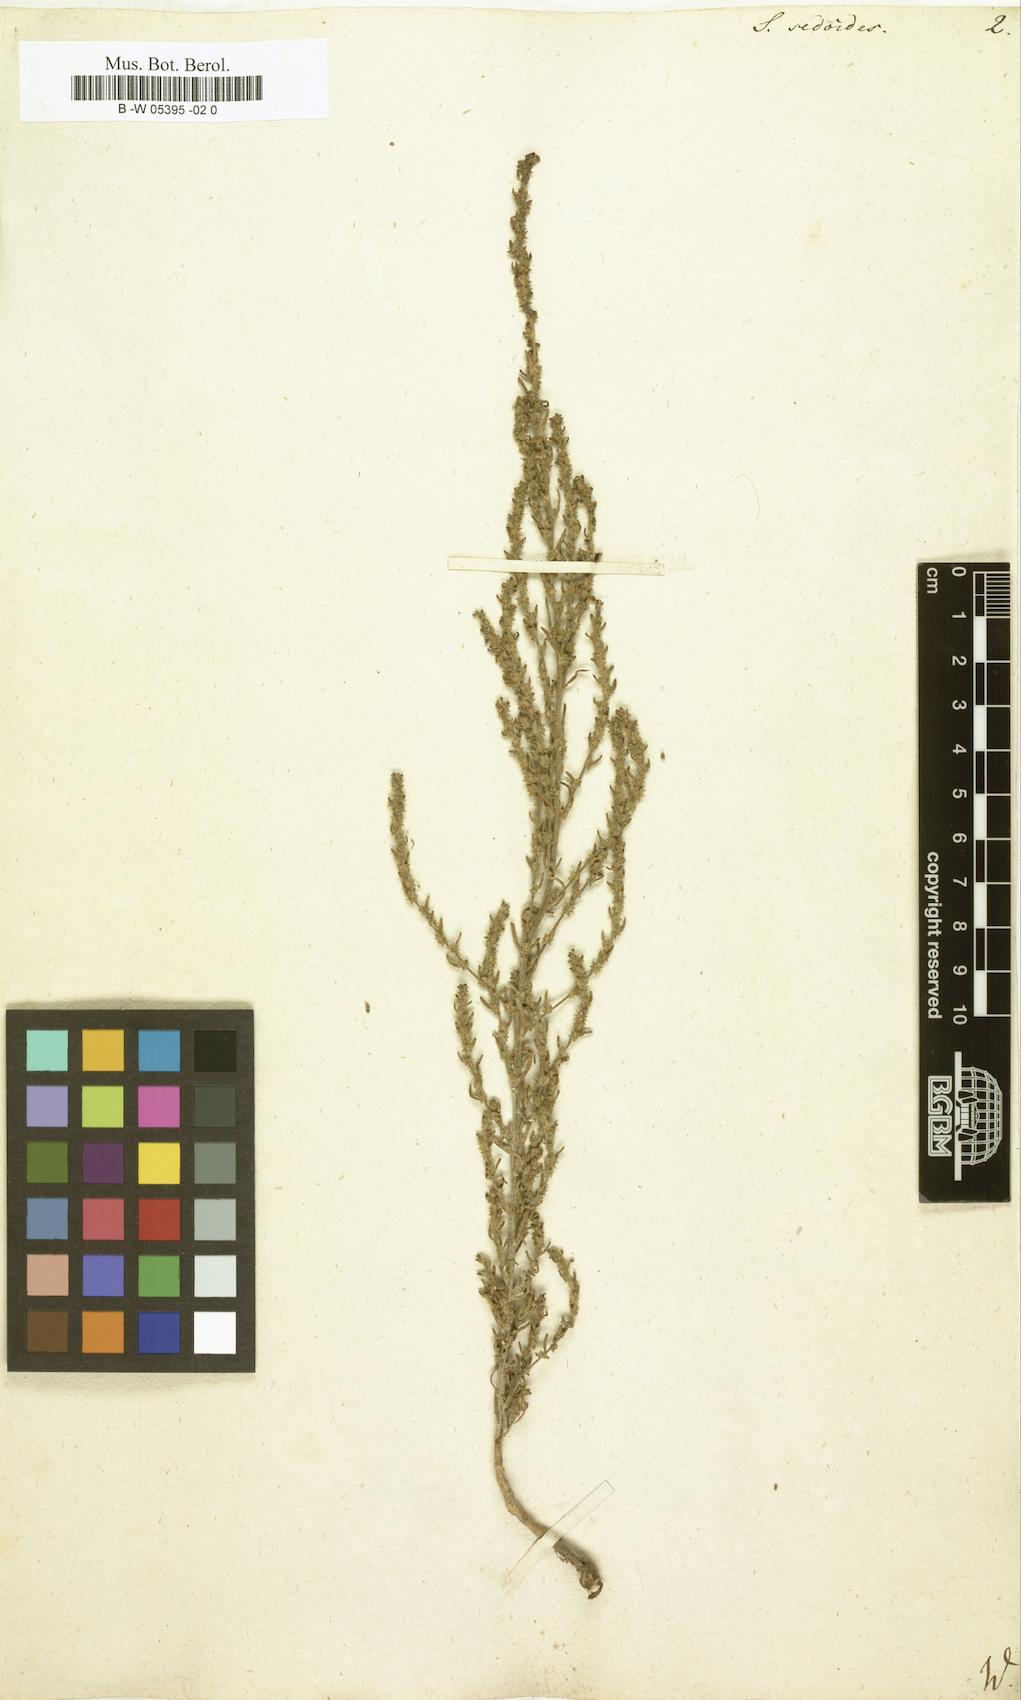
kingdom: Plantae
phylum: Tracheophyta
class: Magnoliopsida
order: Caryophyllales
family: Amaranthaceae
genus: Sedobassia
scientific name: Sedobassia sedoides
